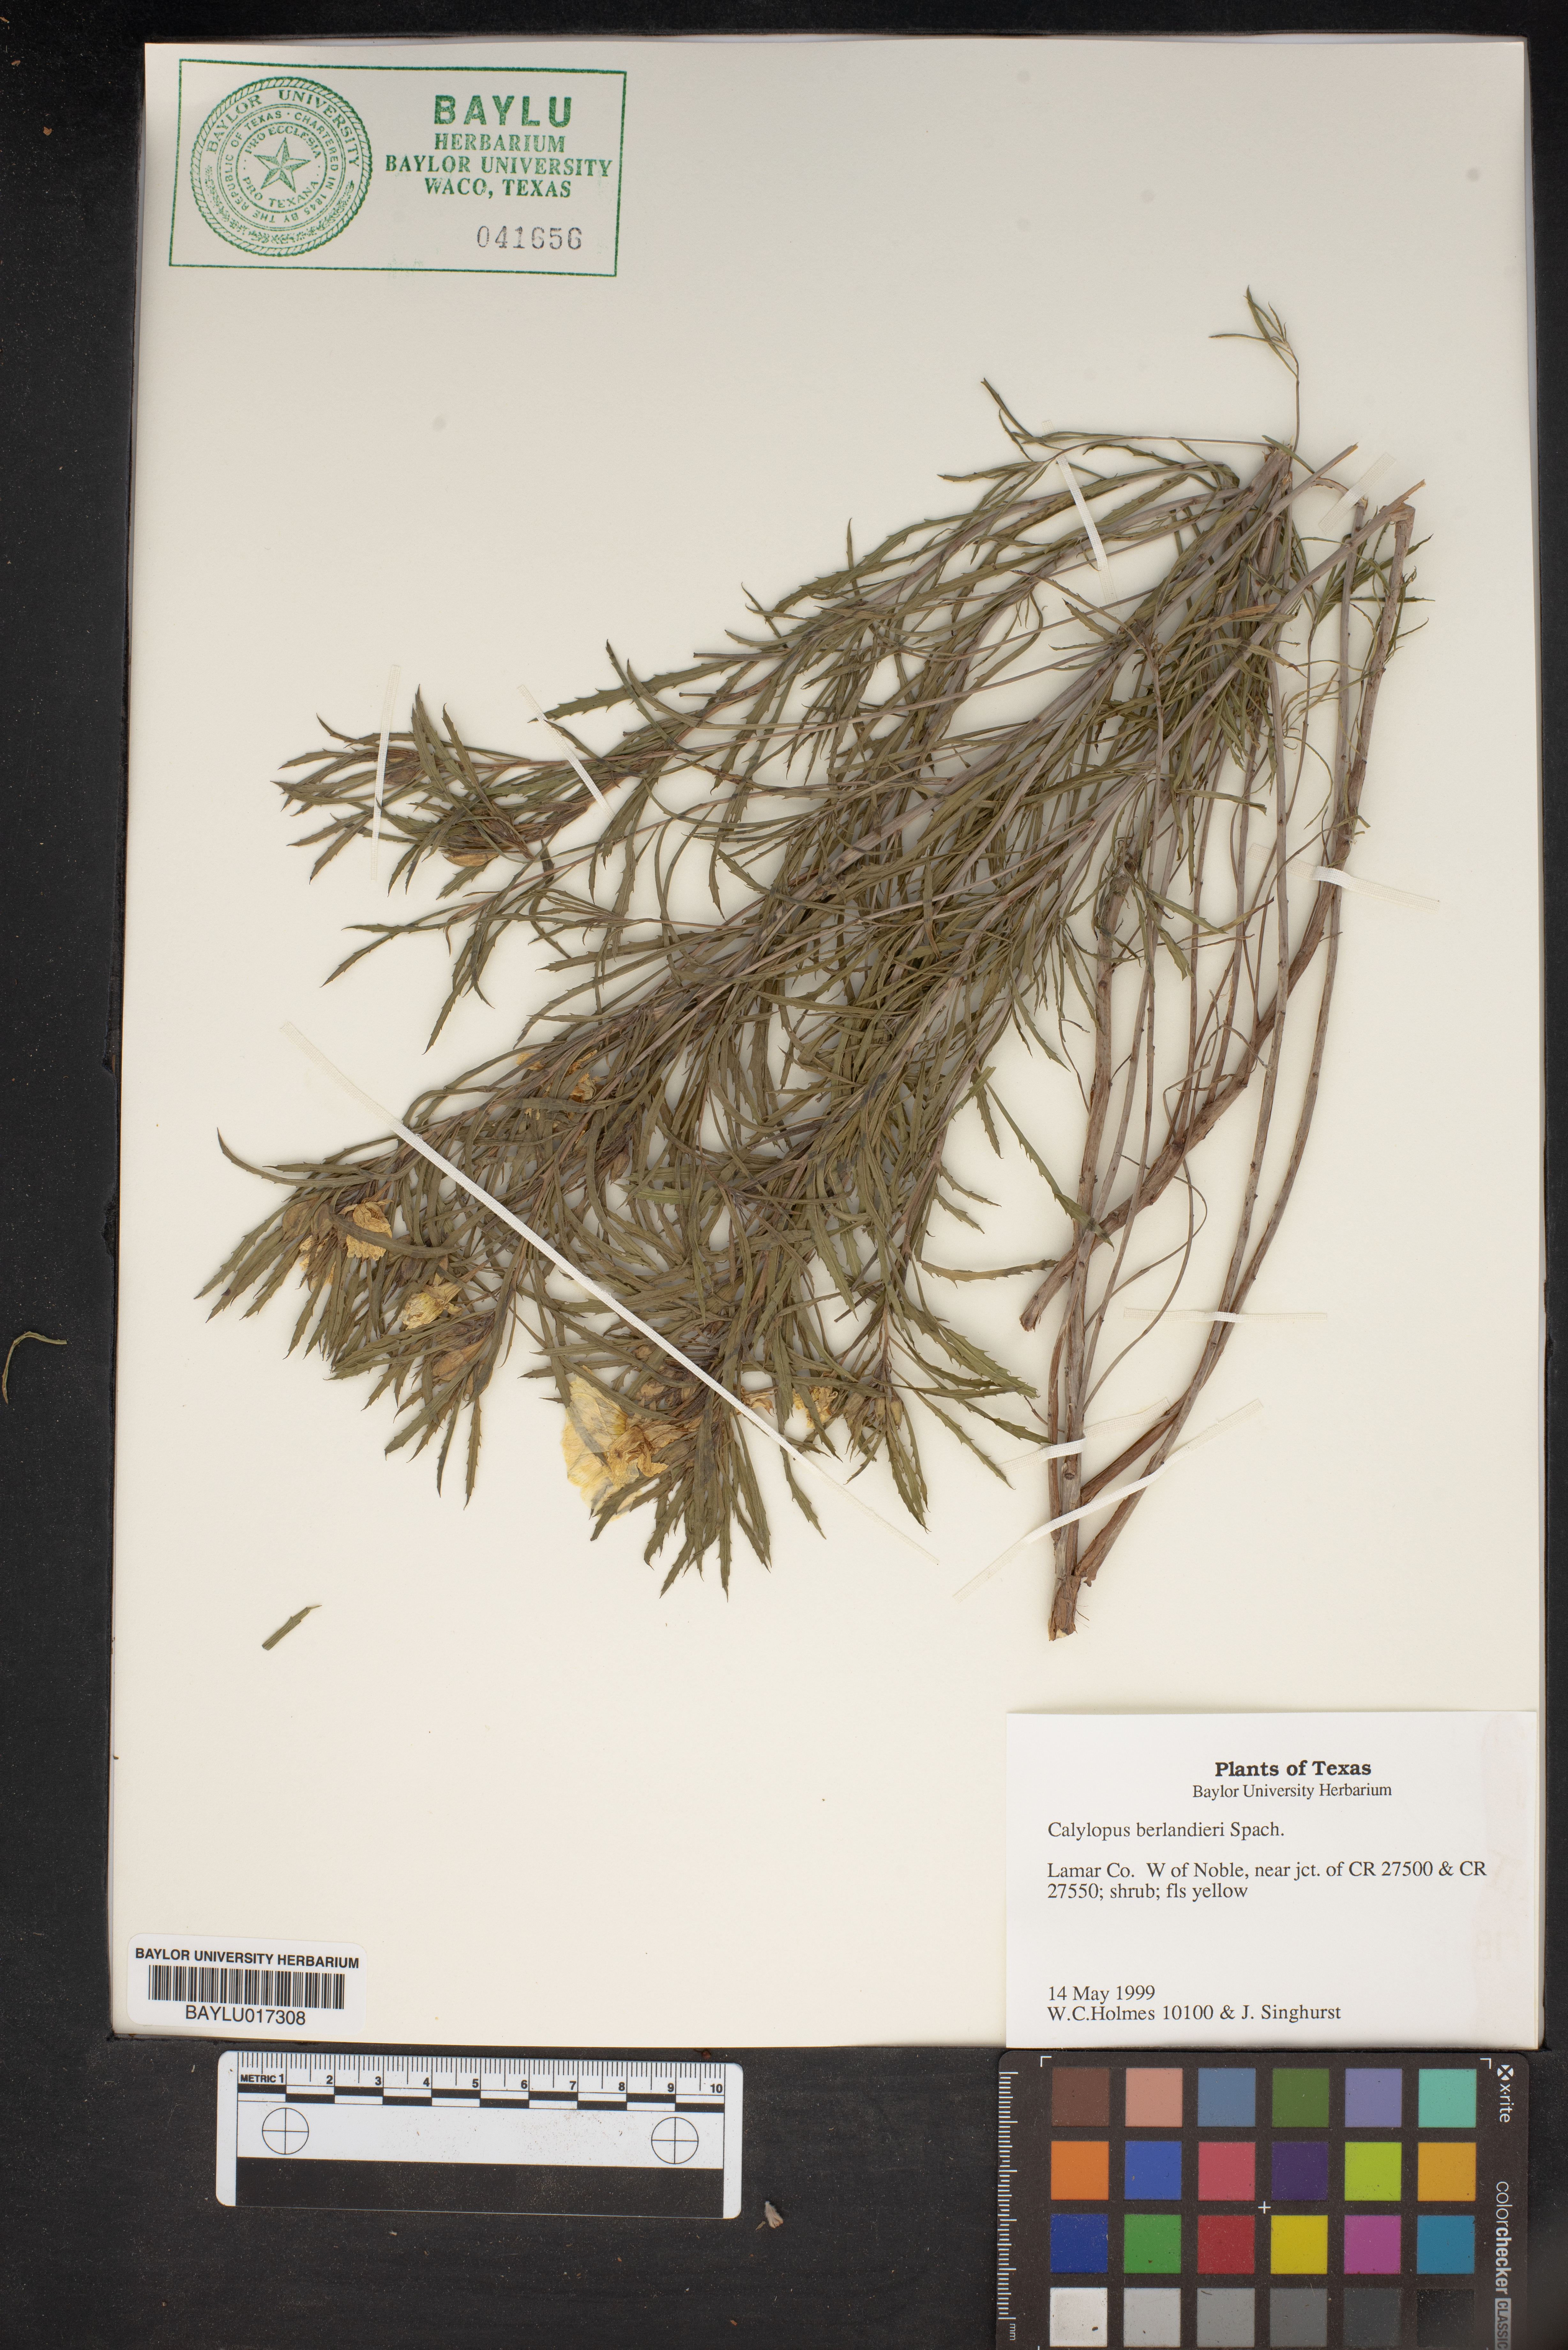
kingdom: Plantae
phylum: Tracheophyta
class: Magnoliopsida
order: Myrtales
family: Onagraceae
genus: Oenothera
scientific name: Oenothera capillifolia
